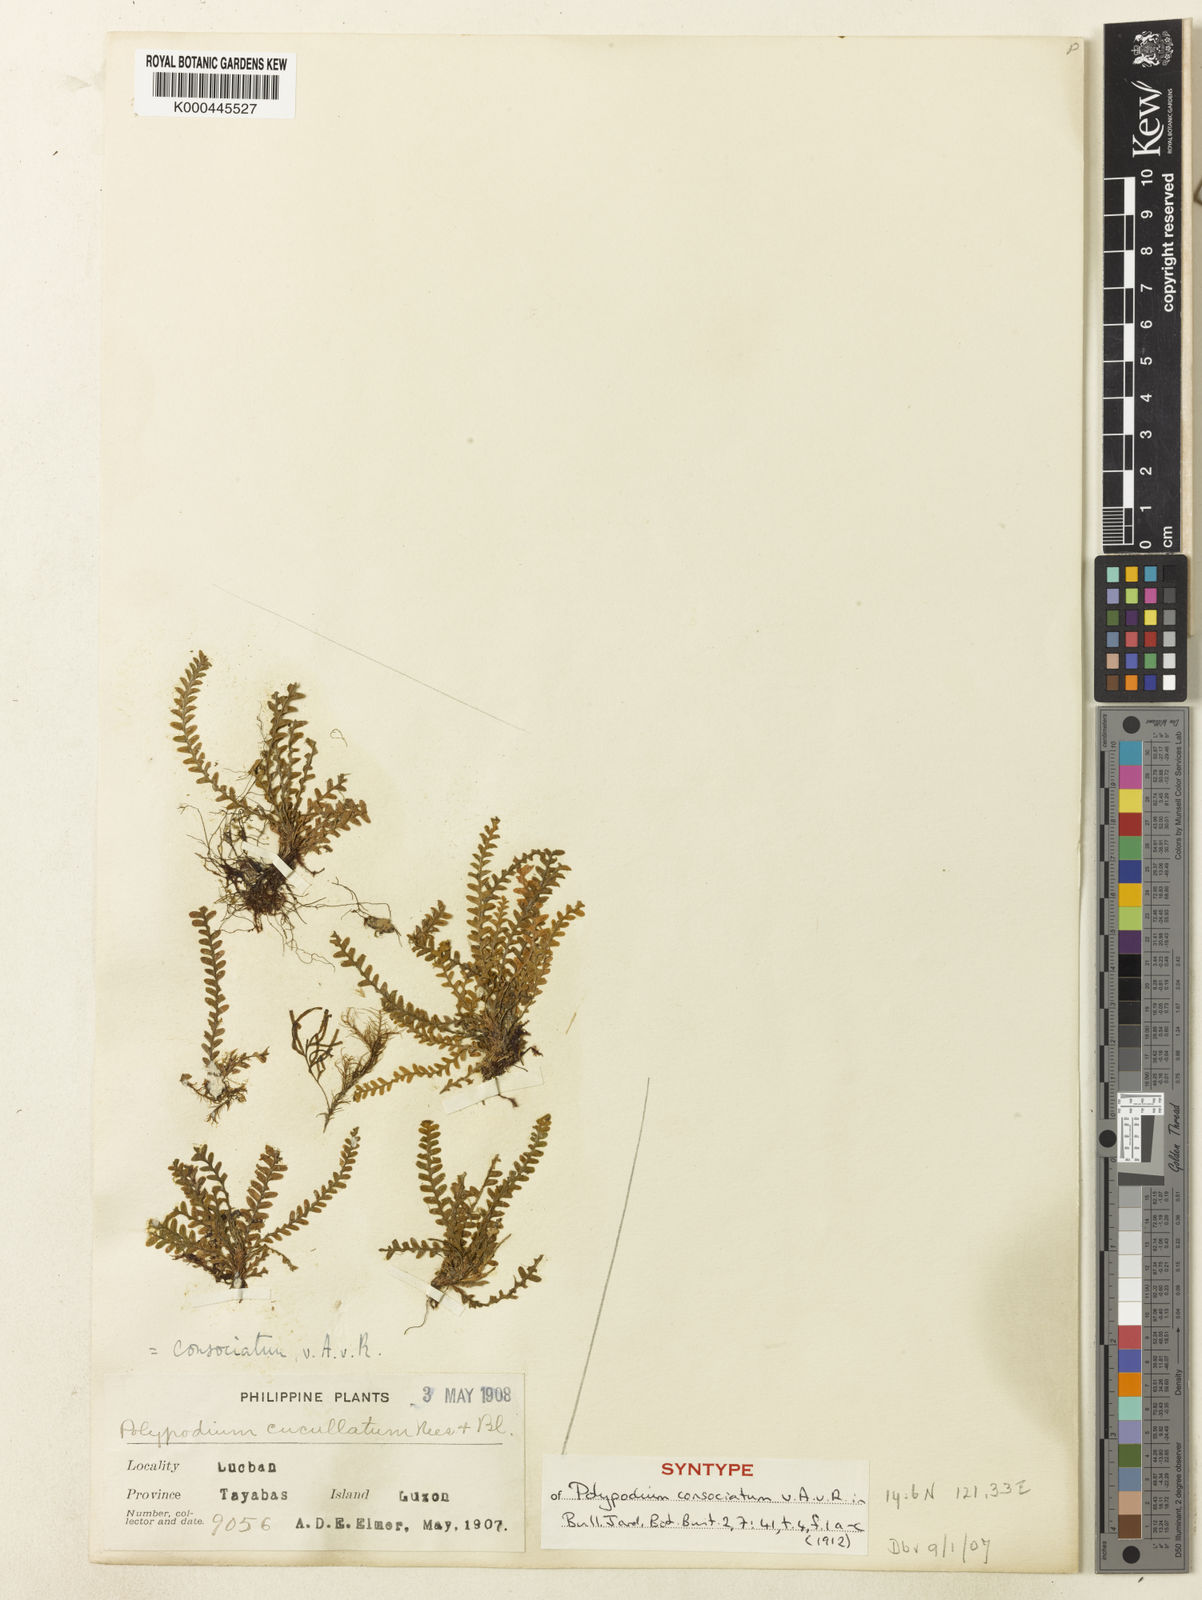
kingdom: Plantae
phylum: Tracheophyta
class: Polypodiopsida
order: Polypodiales
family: Polypodiaceae
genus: Calymmodon
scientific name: Calymmodon gracilis
